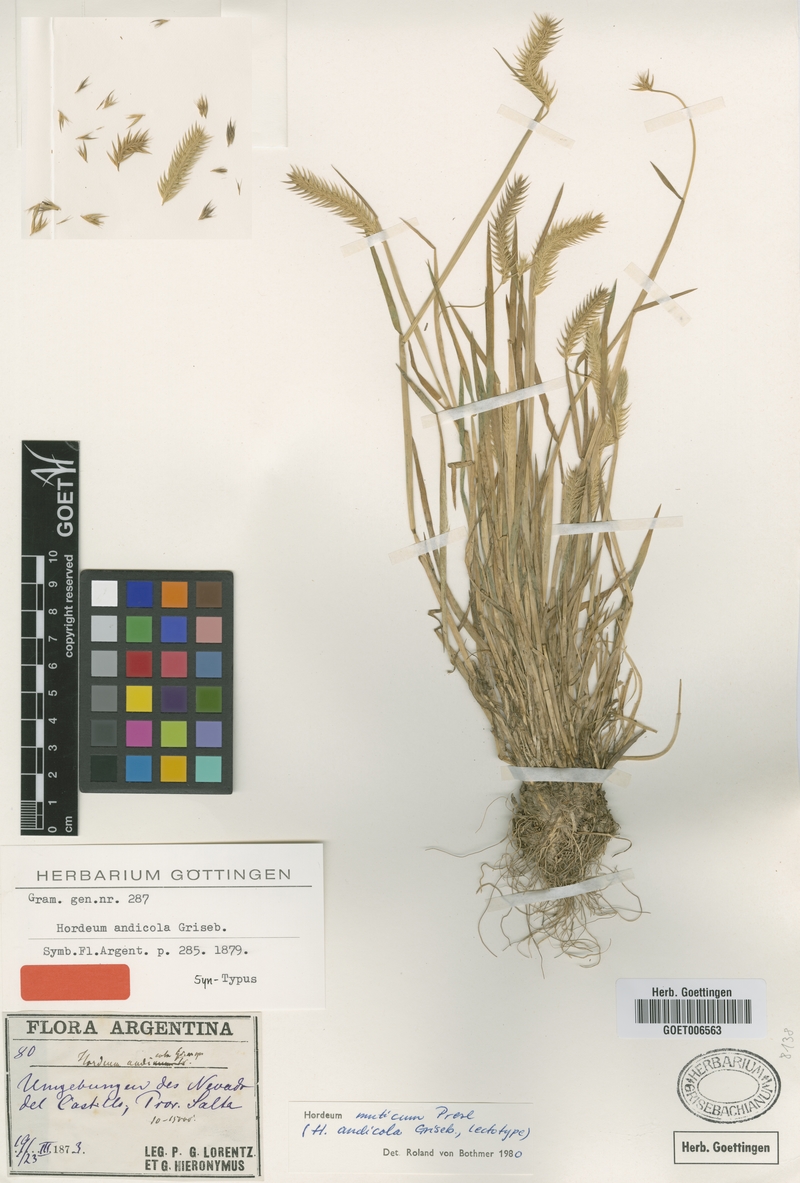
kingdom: Plantae
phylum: Tracheophyta
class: Liliopsida
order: Poales
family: Poaceae
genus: Hordeum
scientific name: Hordeum muticum
